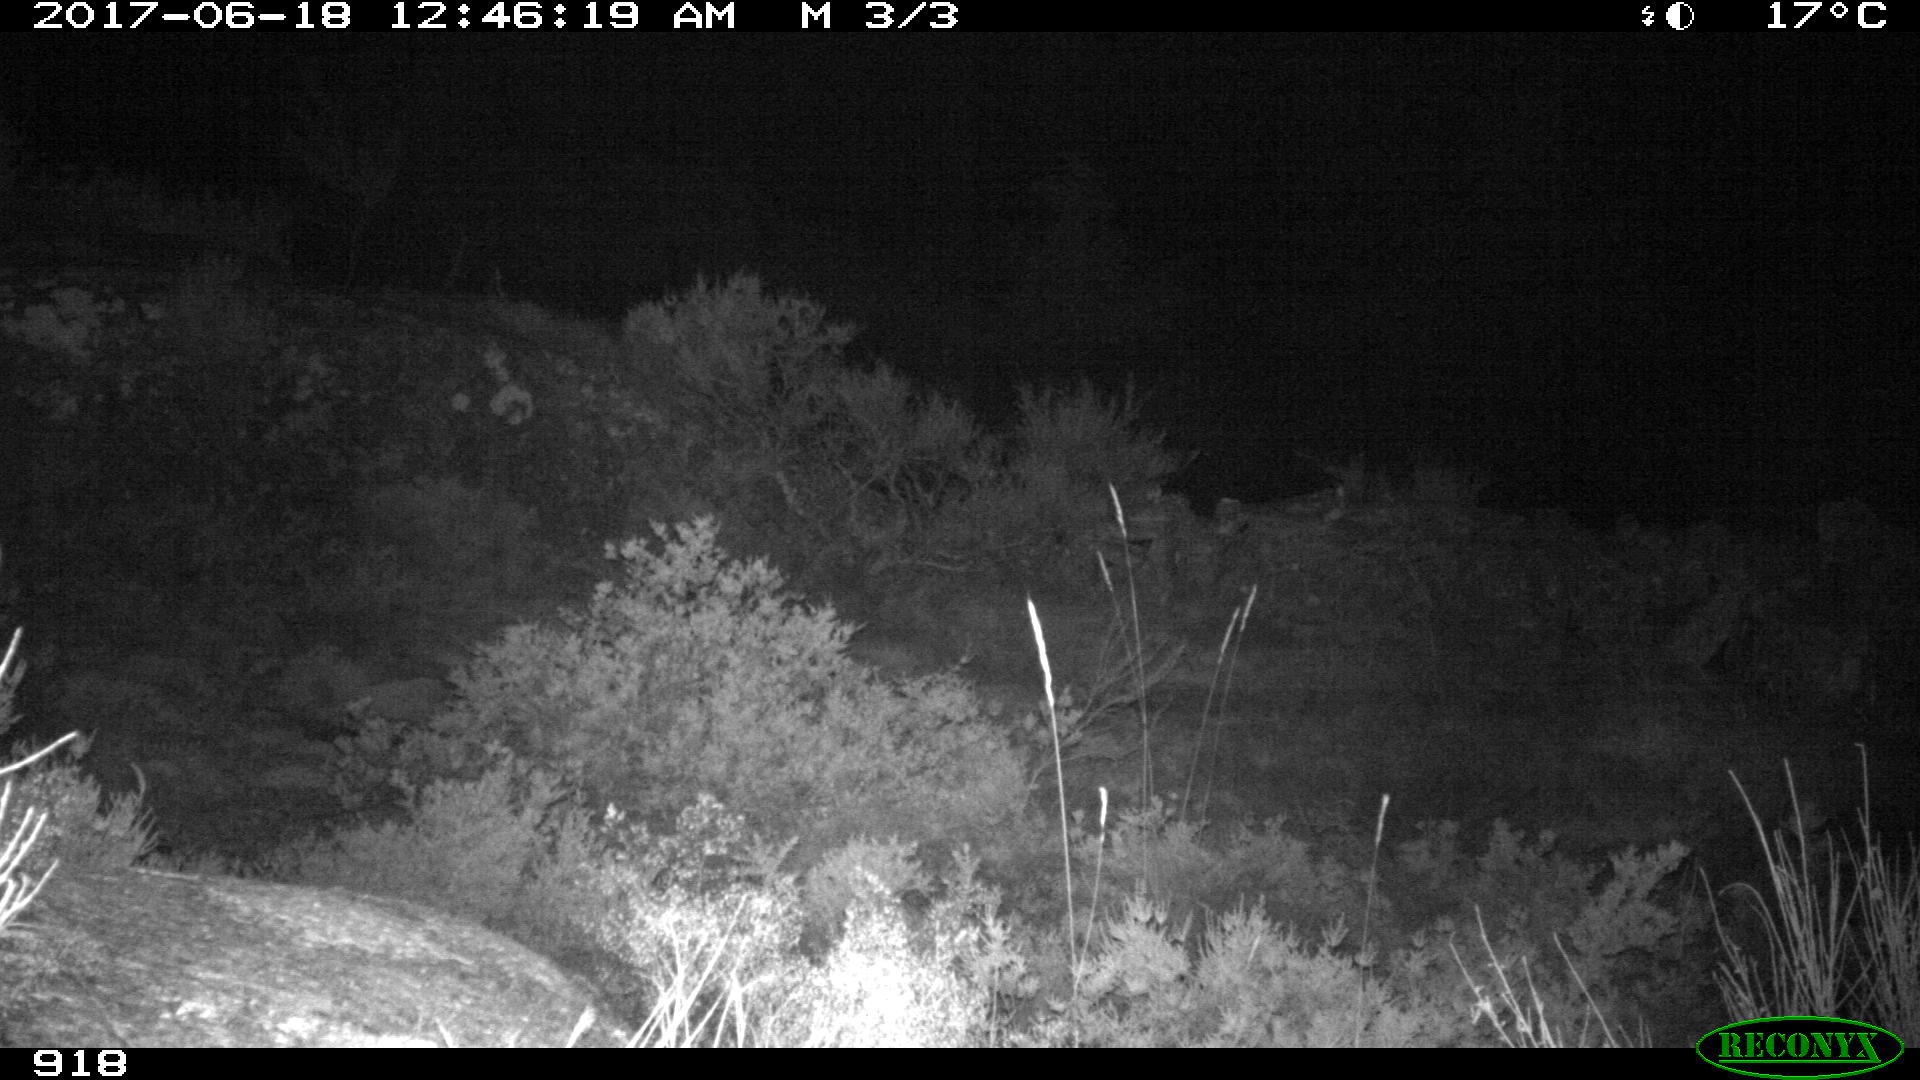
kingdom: Animalia
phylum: Chordata
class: Mammalia
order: Artiodactyla
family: Suidae
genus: Sus
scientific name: Sus scrofa
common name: Wild boar
